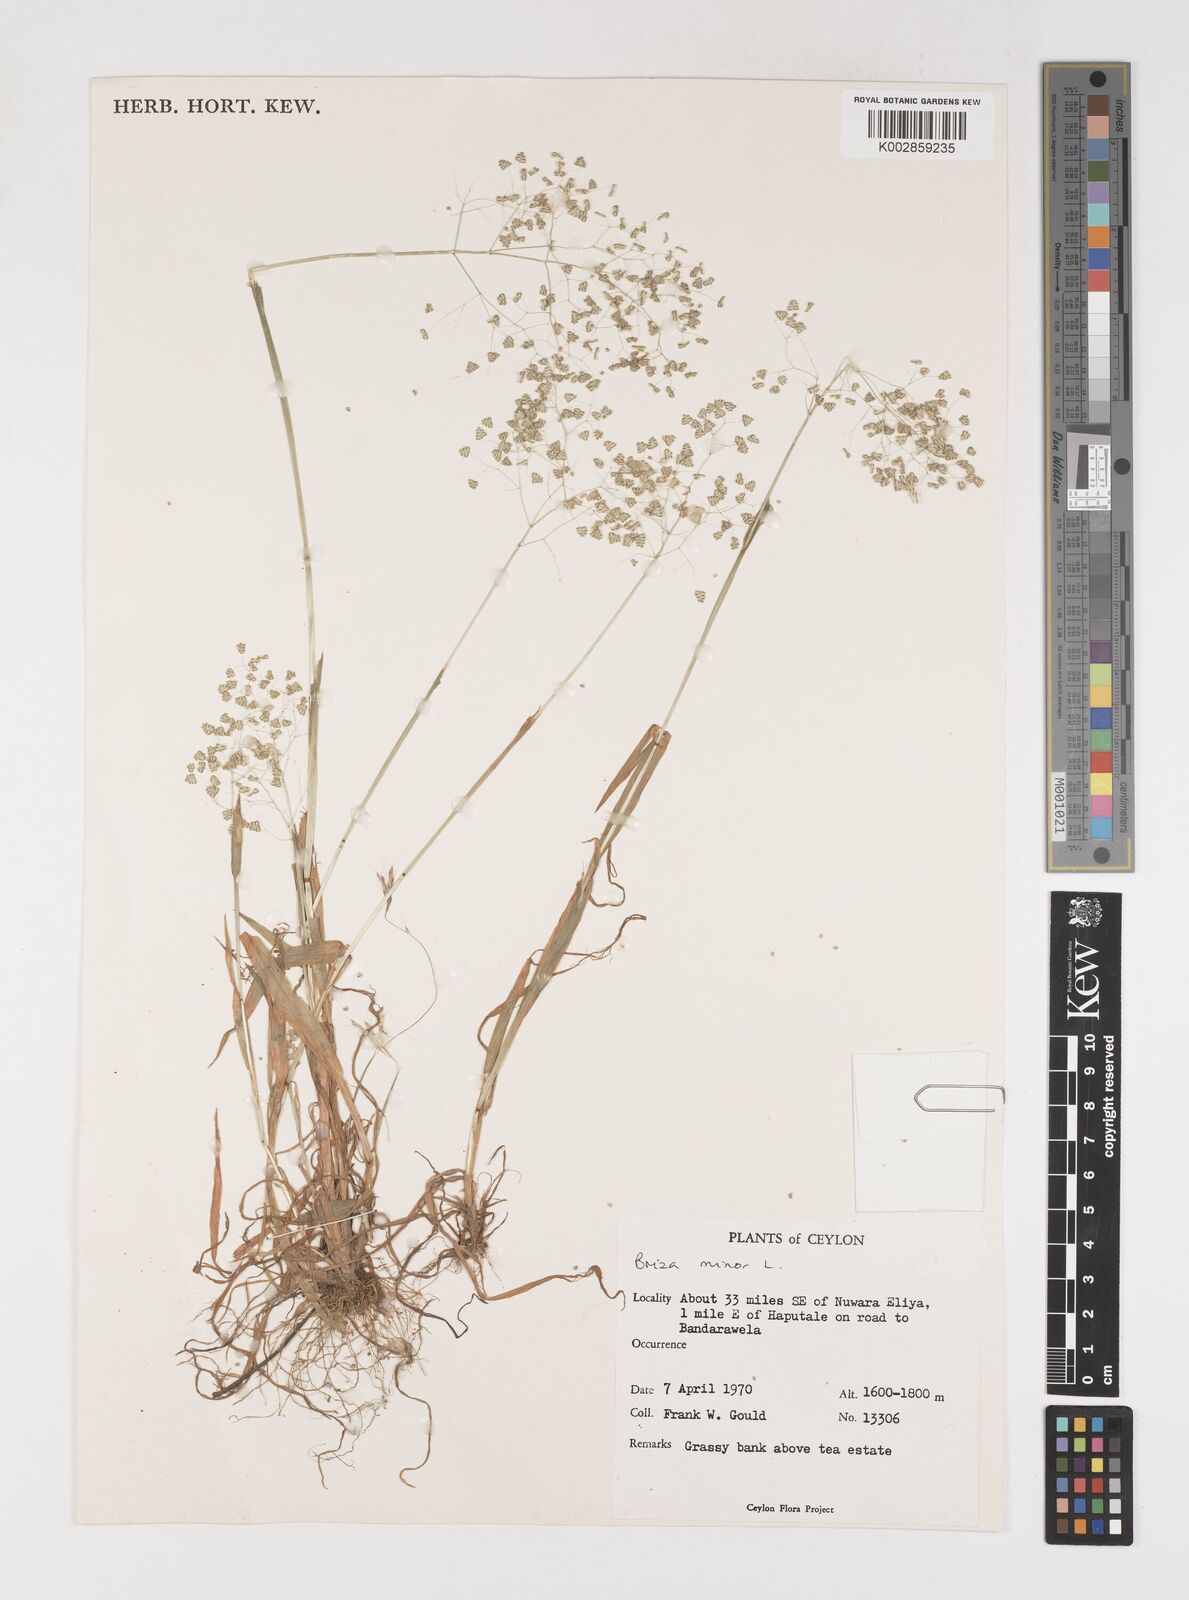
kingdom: Plantae
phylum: Tracheophyta
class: Liliopsida
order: Poales
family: Poaceae
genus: Briza
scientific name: Briza minor
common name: Lesser quaking-grass
